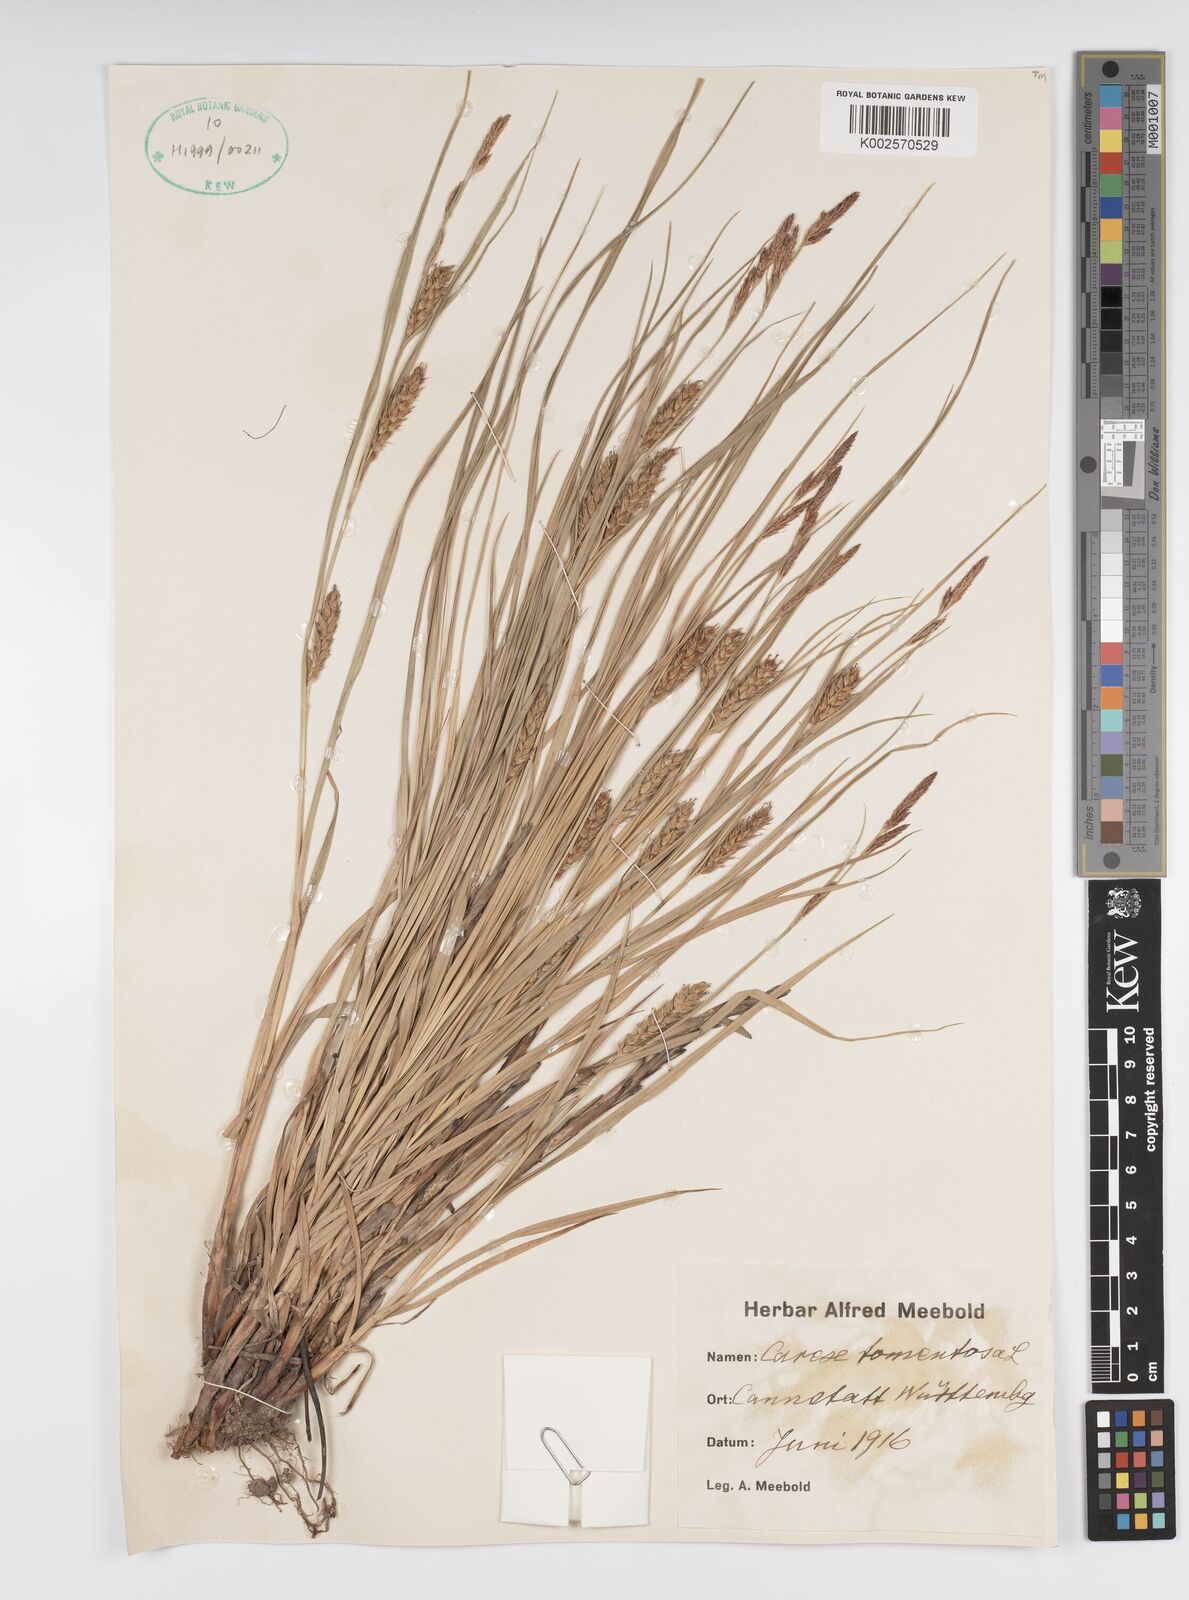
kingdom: Plantae
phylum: Tracheophyta
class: Liliopsida
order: Poales
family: Cyperaceae
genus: Carex
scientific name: Carex montana
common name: Soft-leaved sedge
